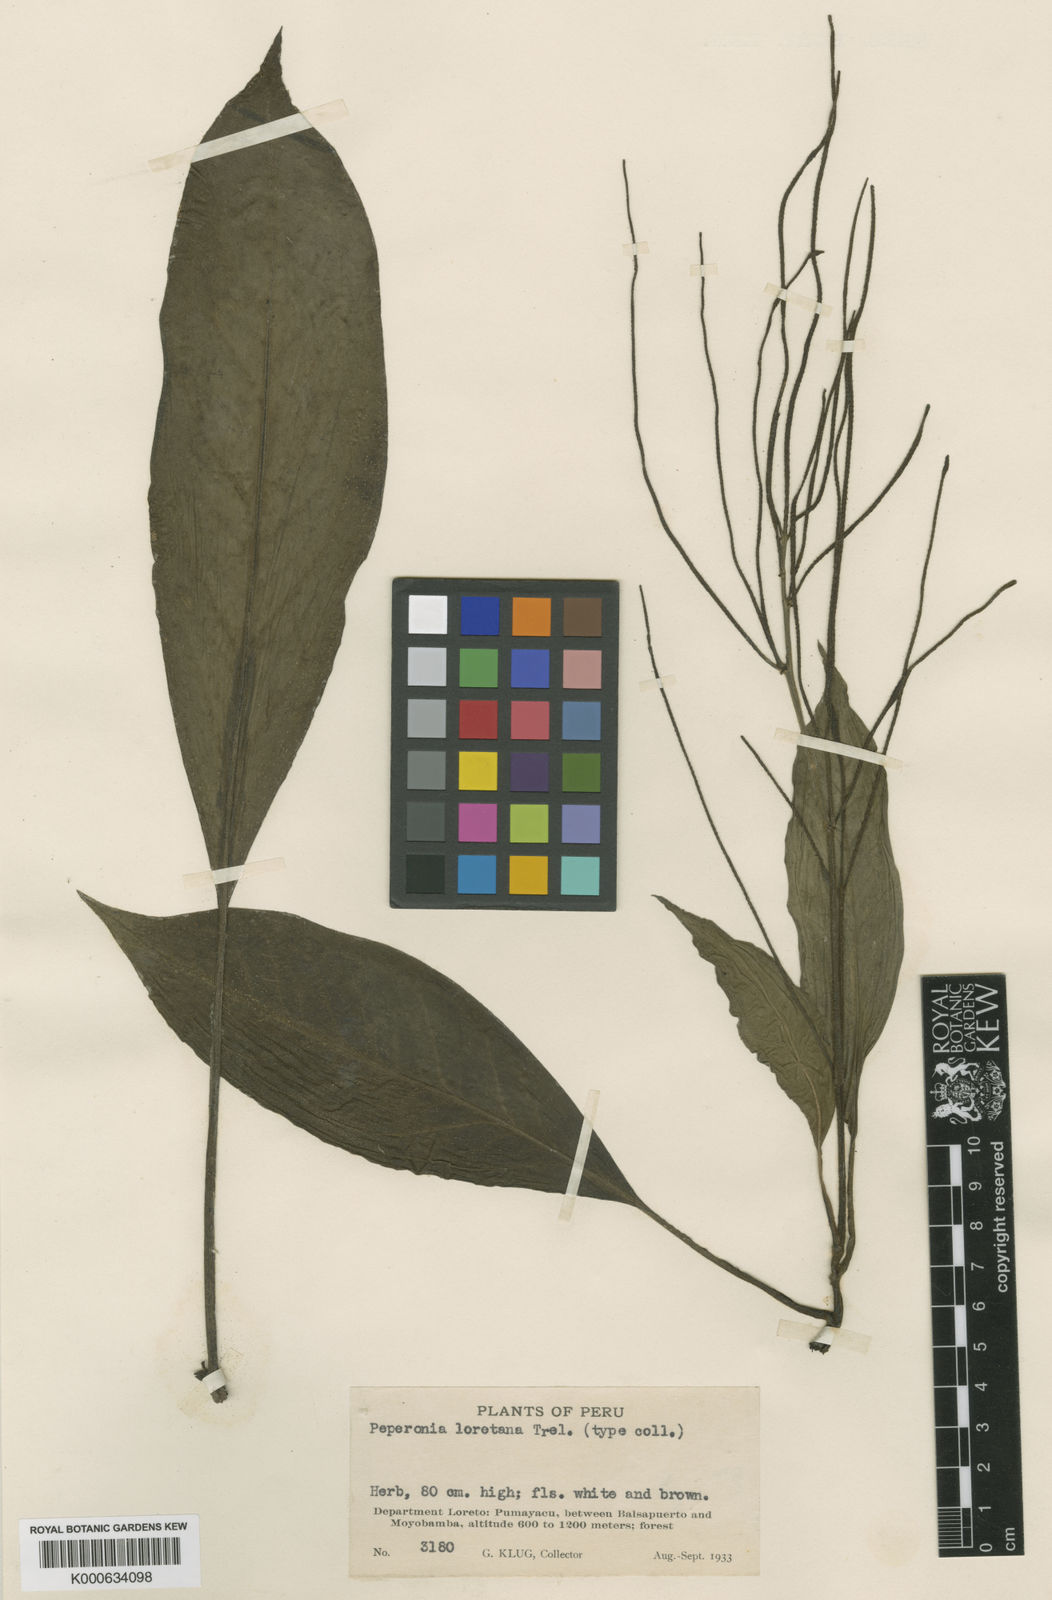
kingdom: Plantae
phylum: Tracheophyta
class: Magnoliopsida
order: Piperales
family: Piperaceae
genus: Peperomia
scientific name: Peperomia
